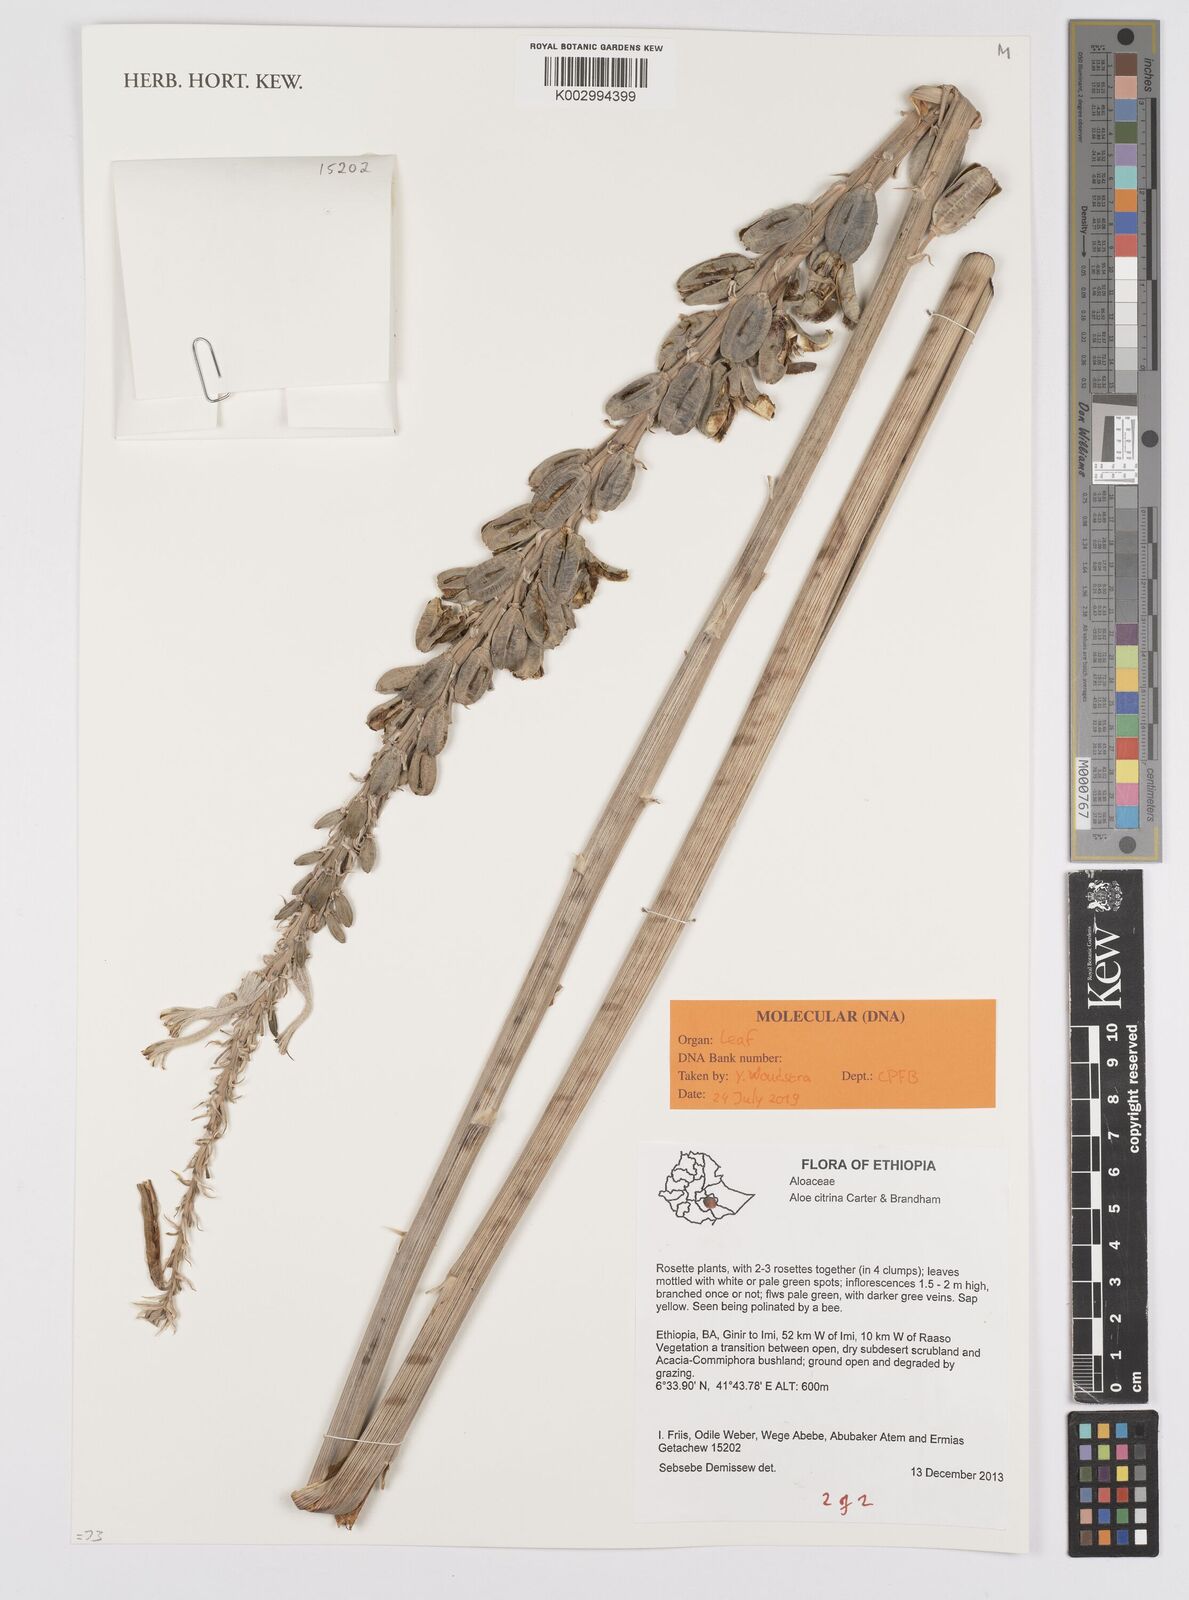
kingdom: Plantae
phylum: Tracheophyta
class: Liliopsida
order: Asparagales
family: Asphodelaceae
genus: Aloe
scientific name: Aloe citrina
